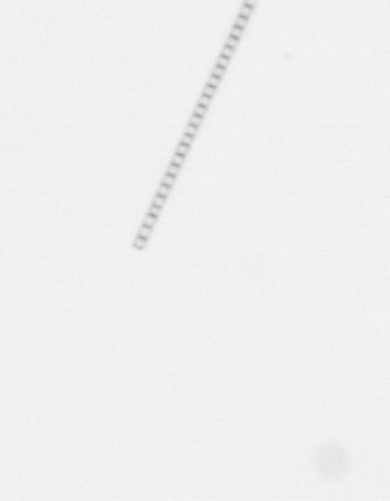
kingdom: Chromista
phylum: Ochrophyta
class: Bacillariophyceae
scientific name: Bacillariophyceae
